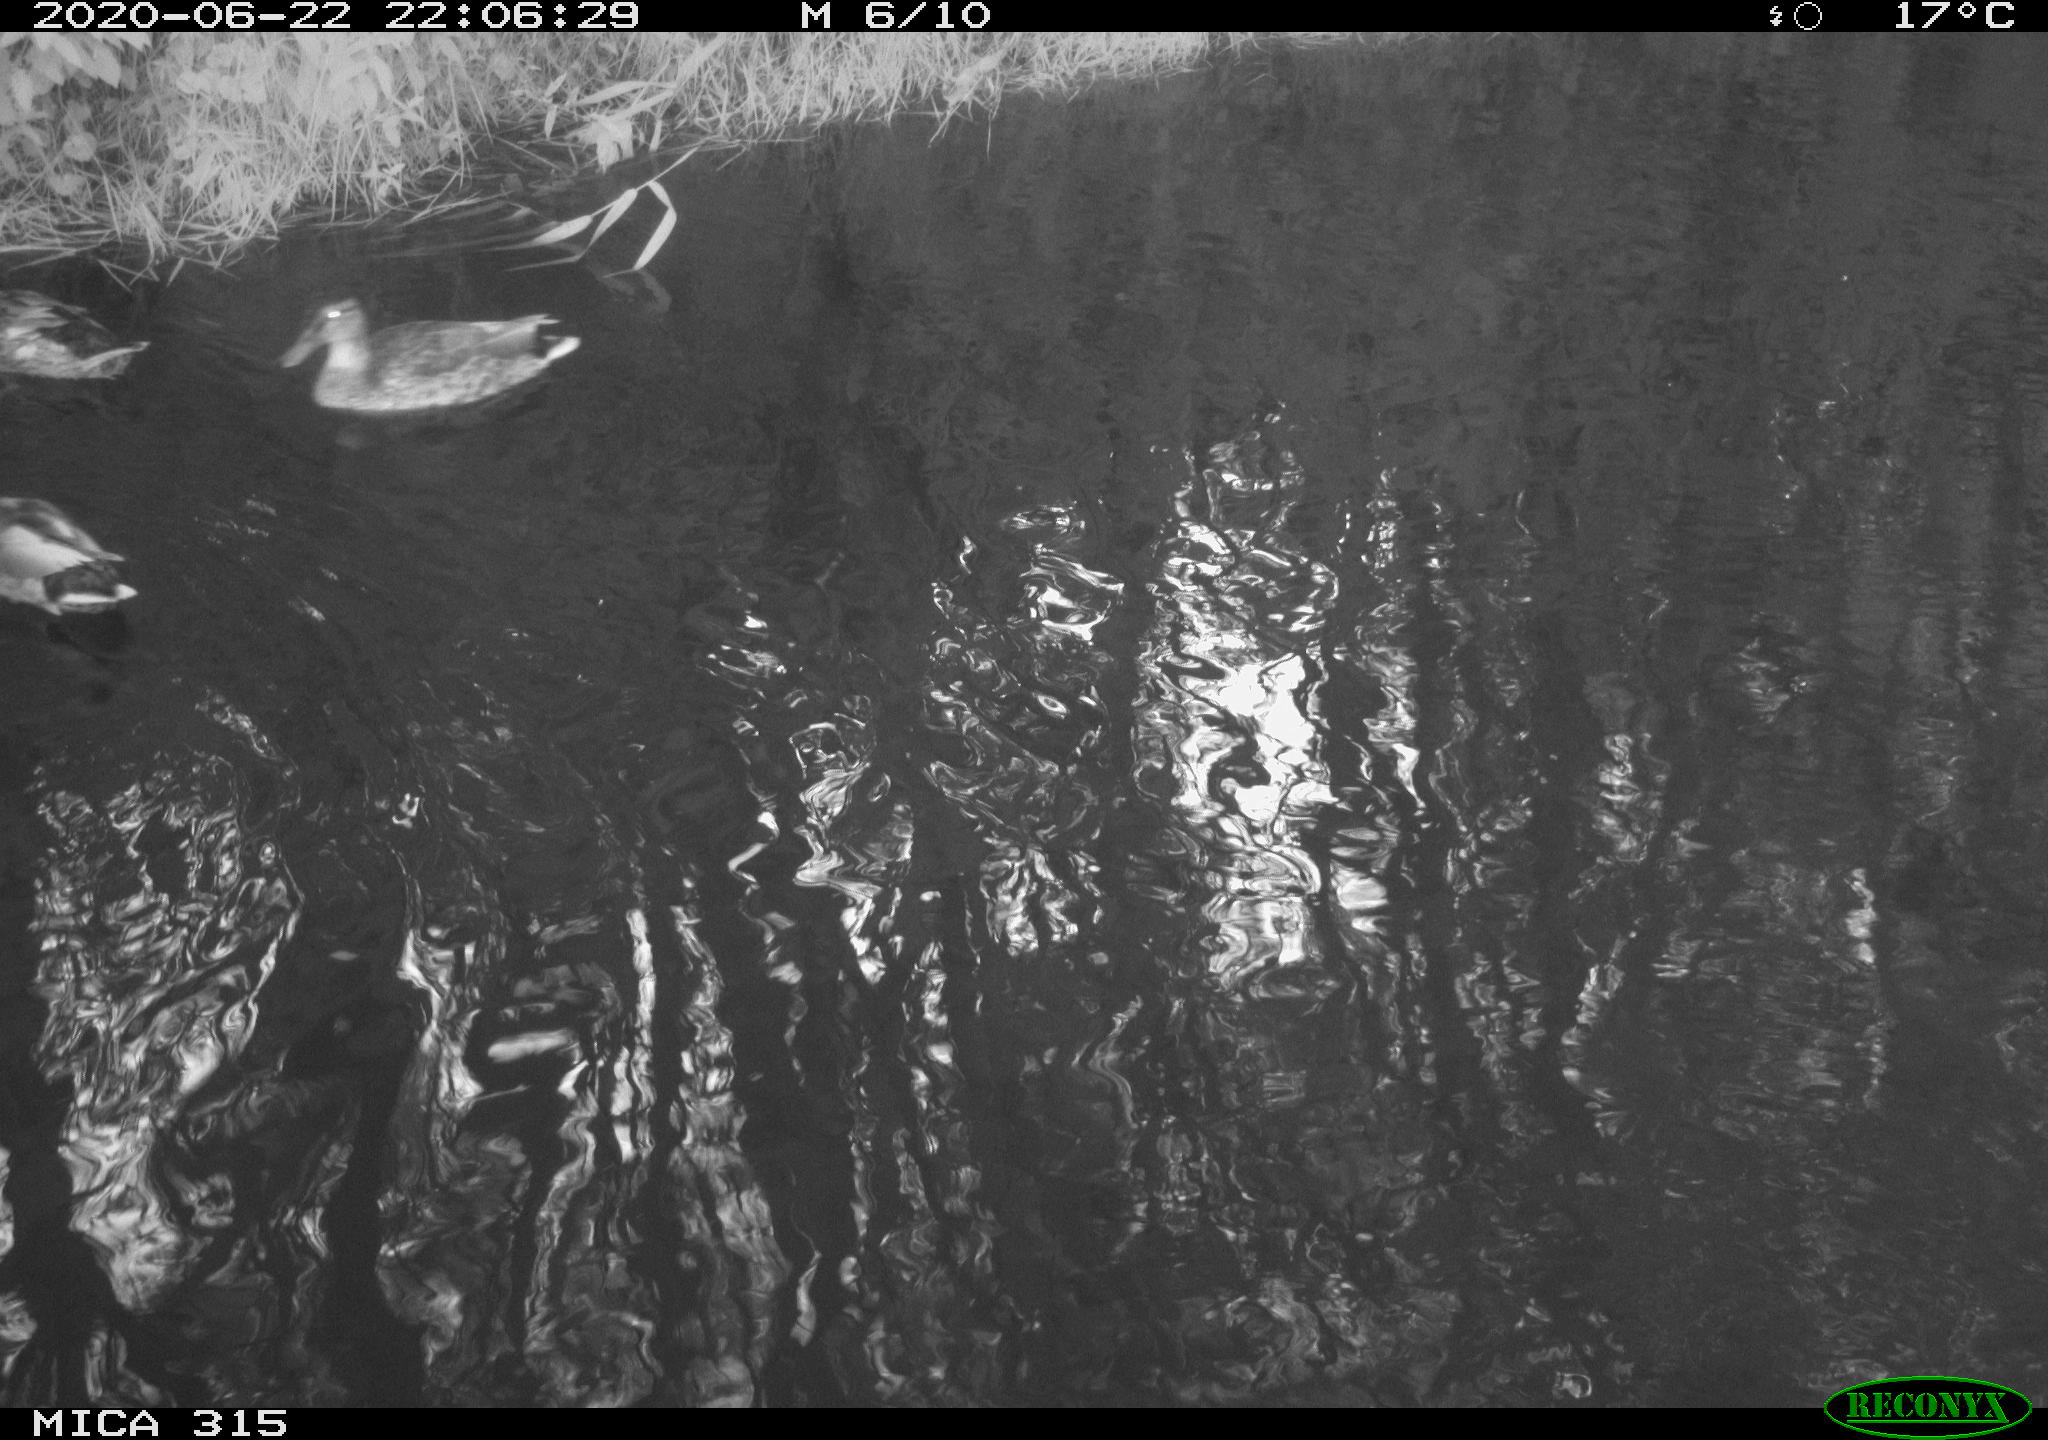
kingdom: Animalia
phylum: Chordata
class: Aves
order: Anseriformes
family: Anatidae
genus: Anas
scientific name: Anas platyrhynchos
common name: Mallard
